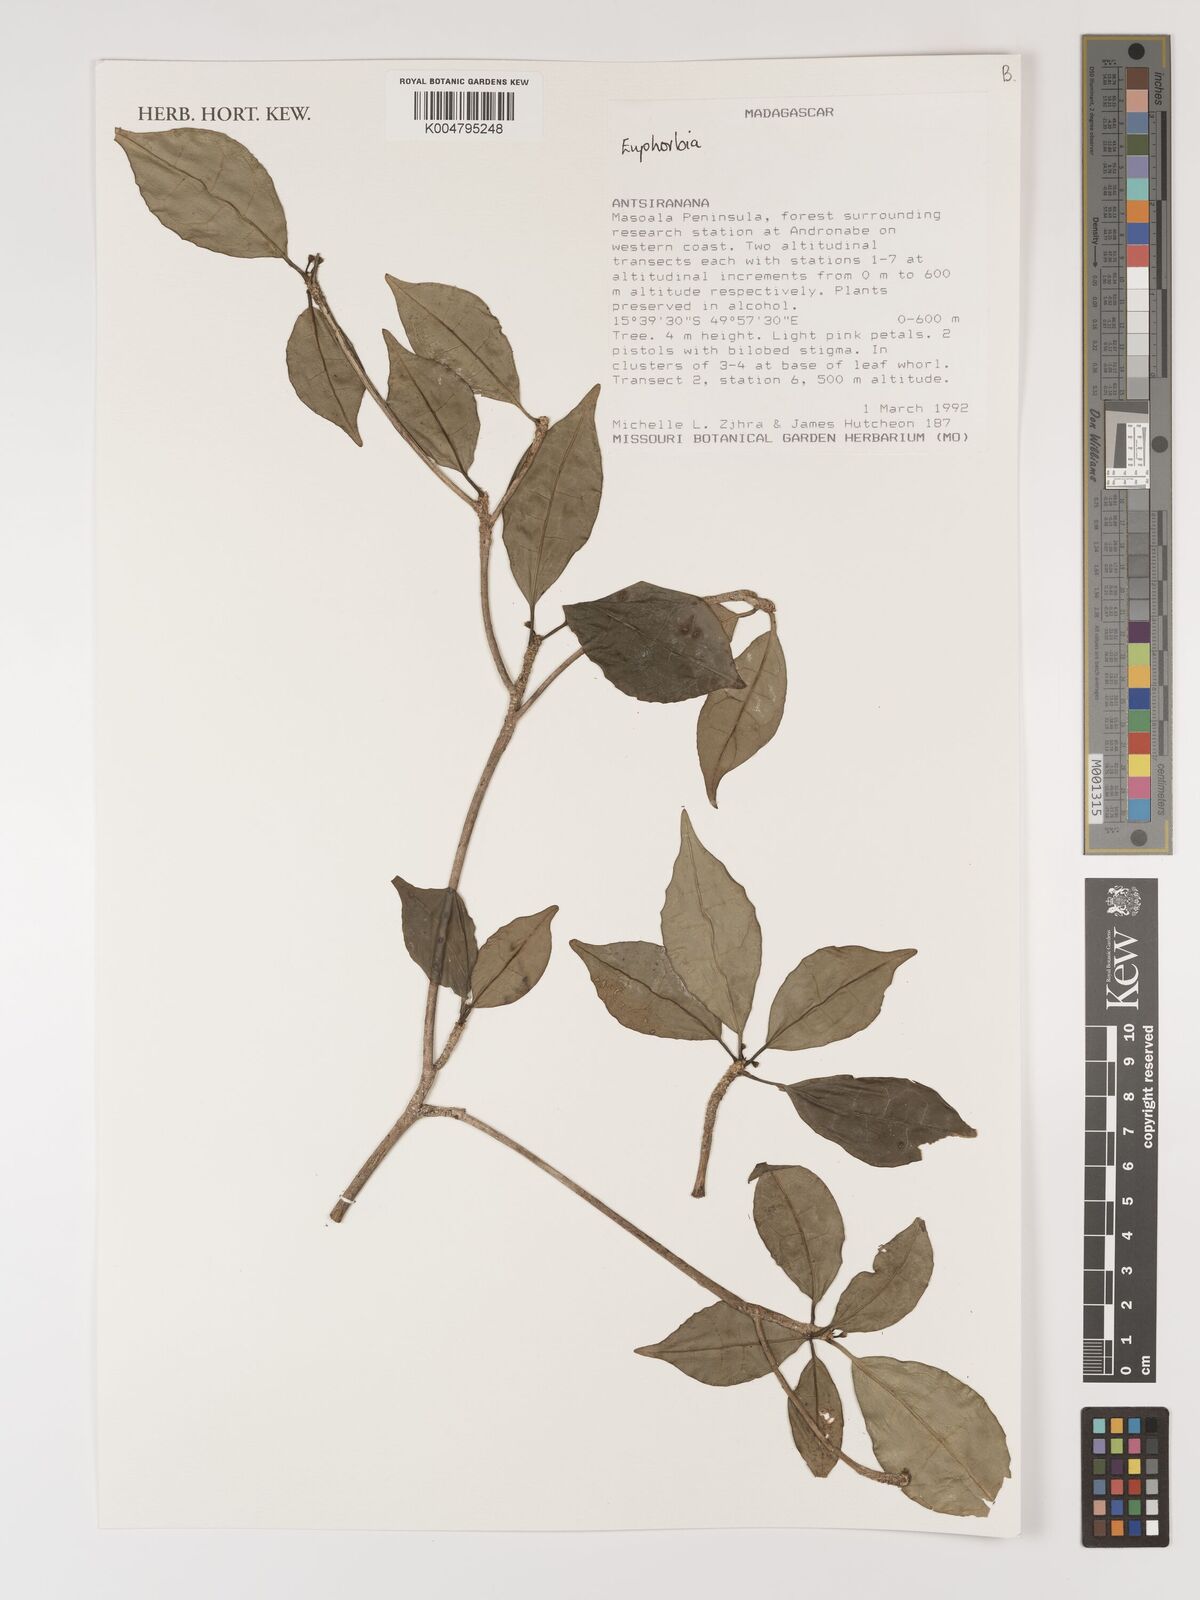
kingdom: Plantae
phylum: Tracheophyta
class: Magnoliopsida
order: Malpighiales
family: Euphorbiaceae
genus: Euphorbia
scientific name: Euphorbia
